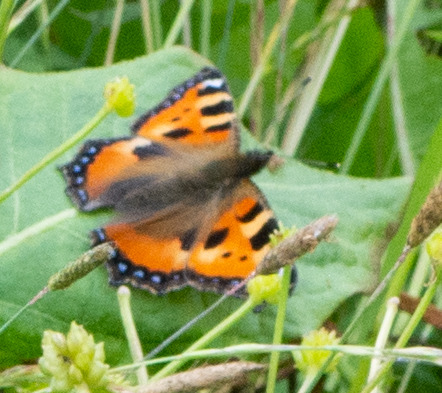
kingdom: Animalia
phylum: Arthropoda
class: Insecta
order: Lepidoptera
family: Nymphalidae
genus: Aglais
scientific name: Aglais urticae
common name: Nældens takvinge
